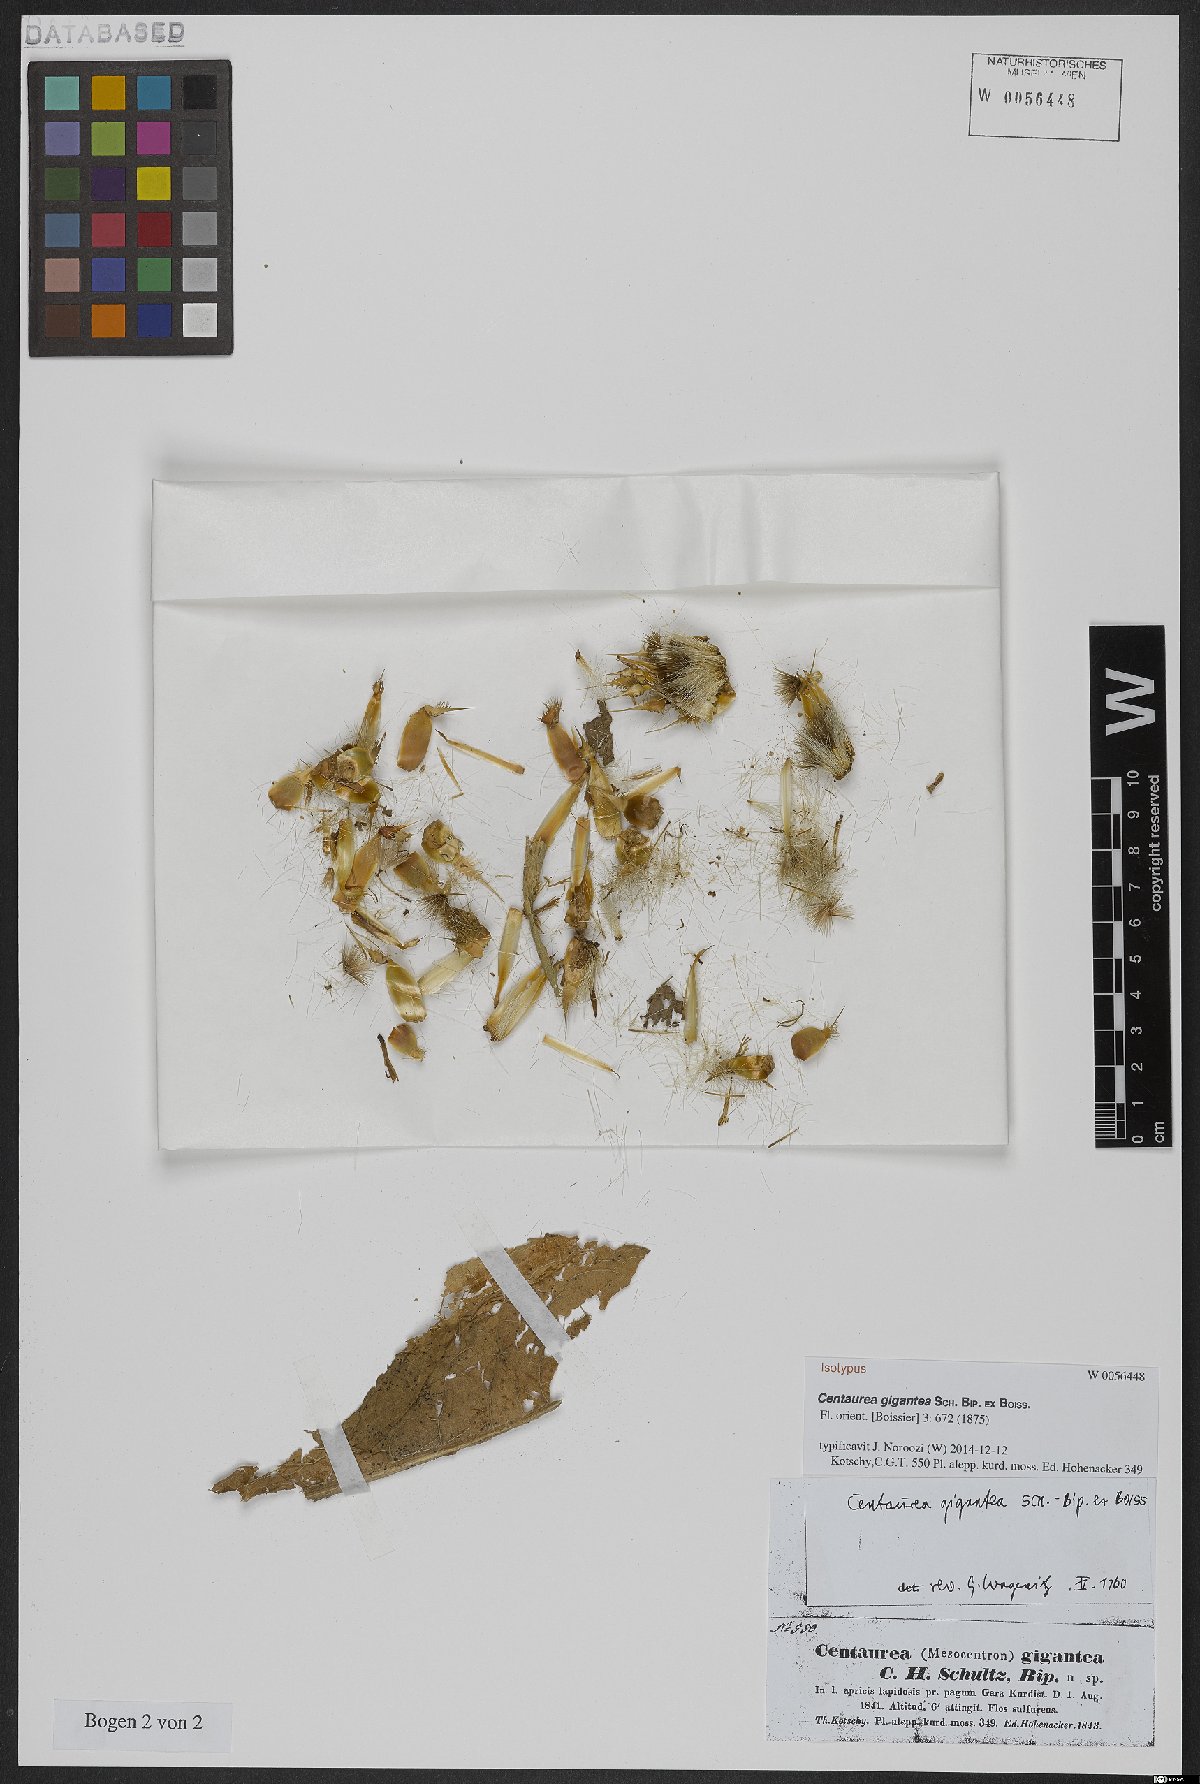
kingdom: Plantae
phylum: Tracheophyta
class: Magnoliopsida
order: Asterales
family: Asteraceae
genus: Centaurea
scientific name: Centaurea gigantea
